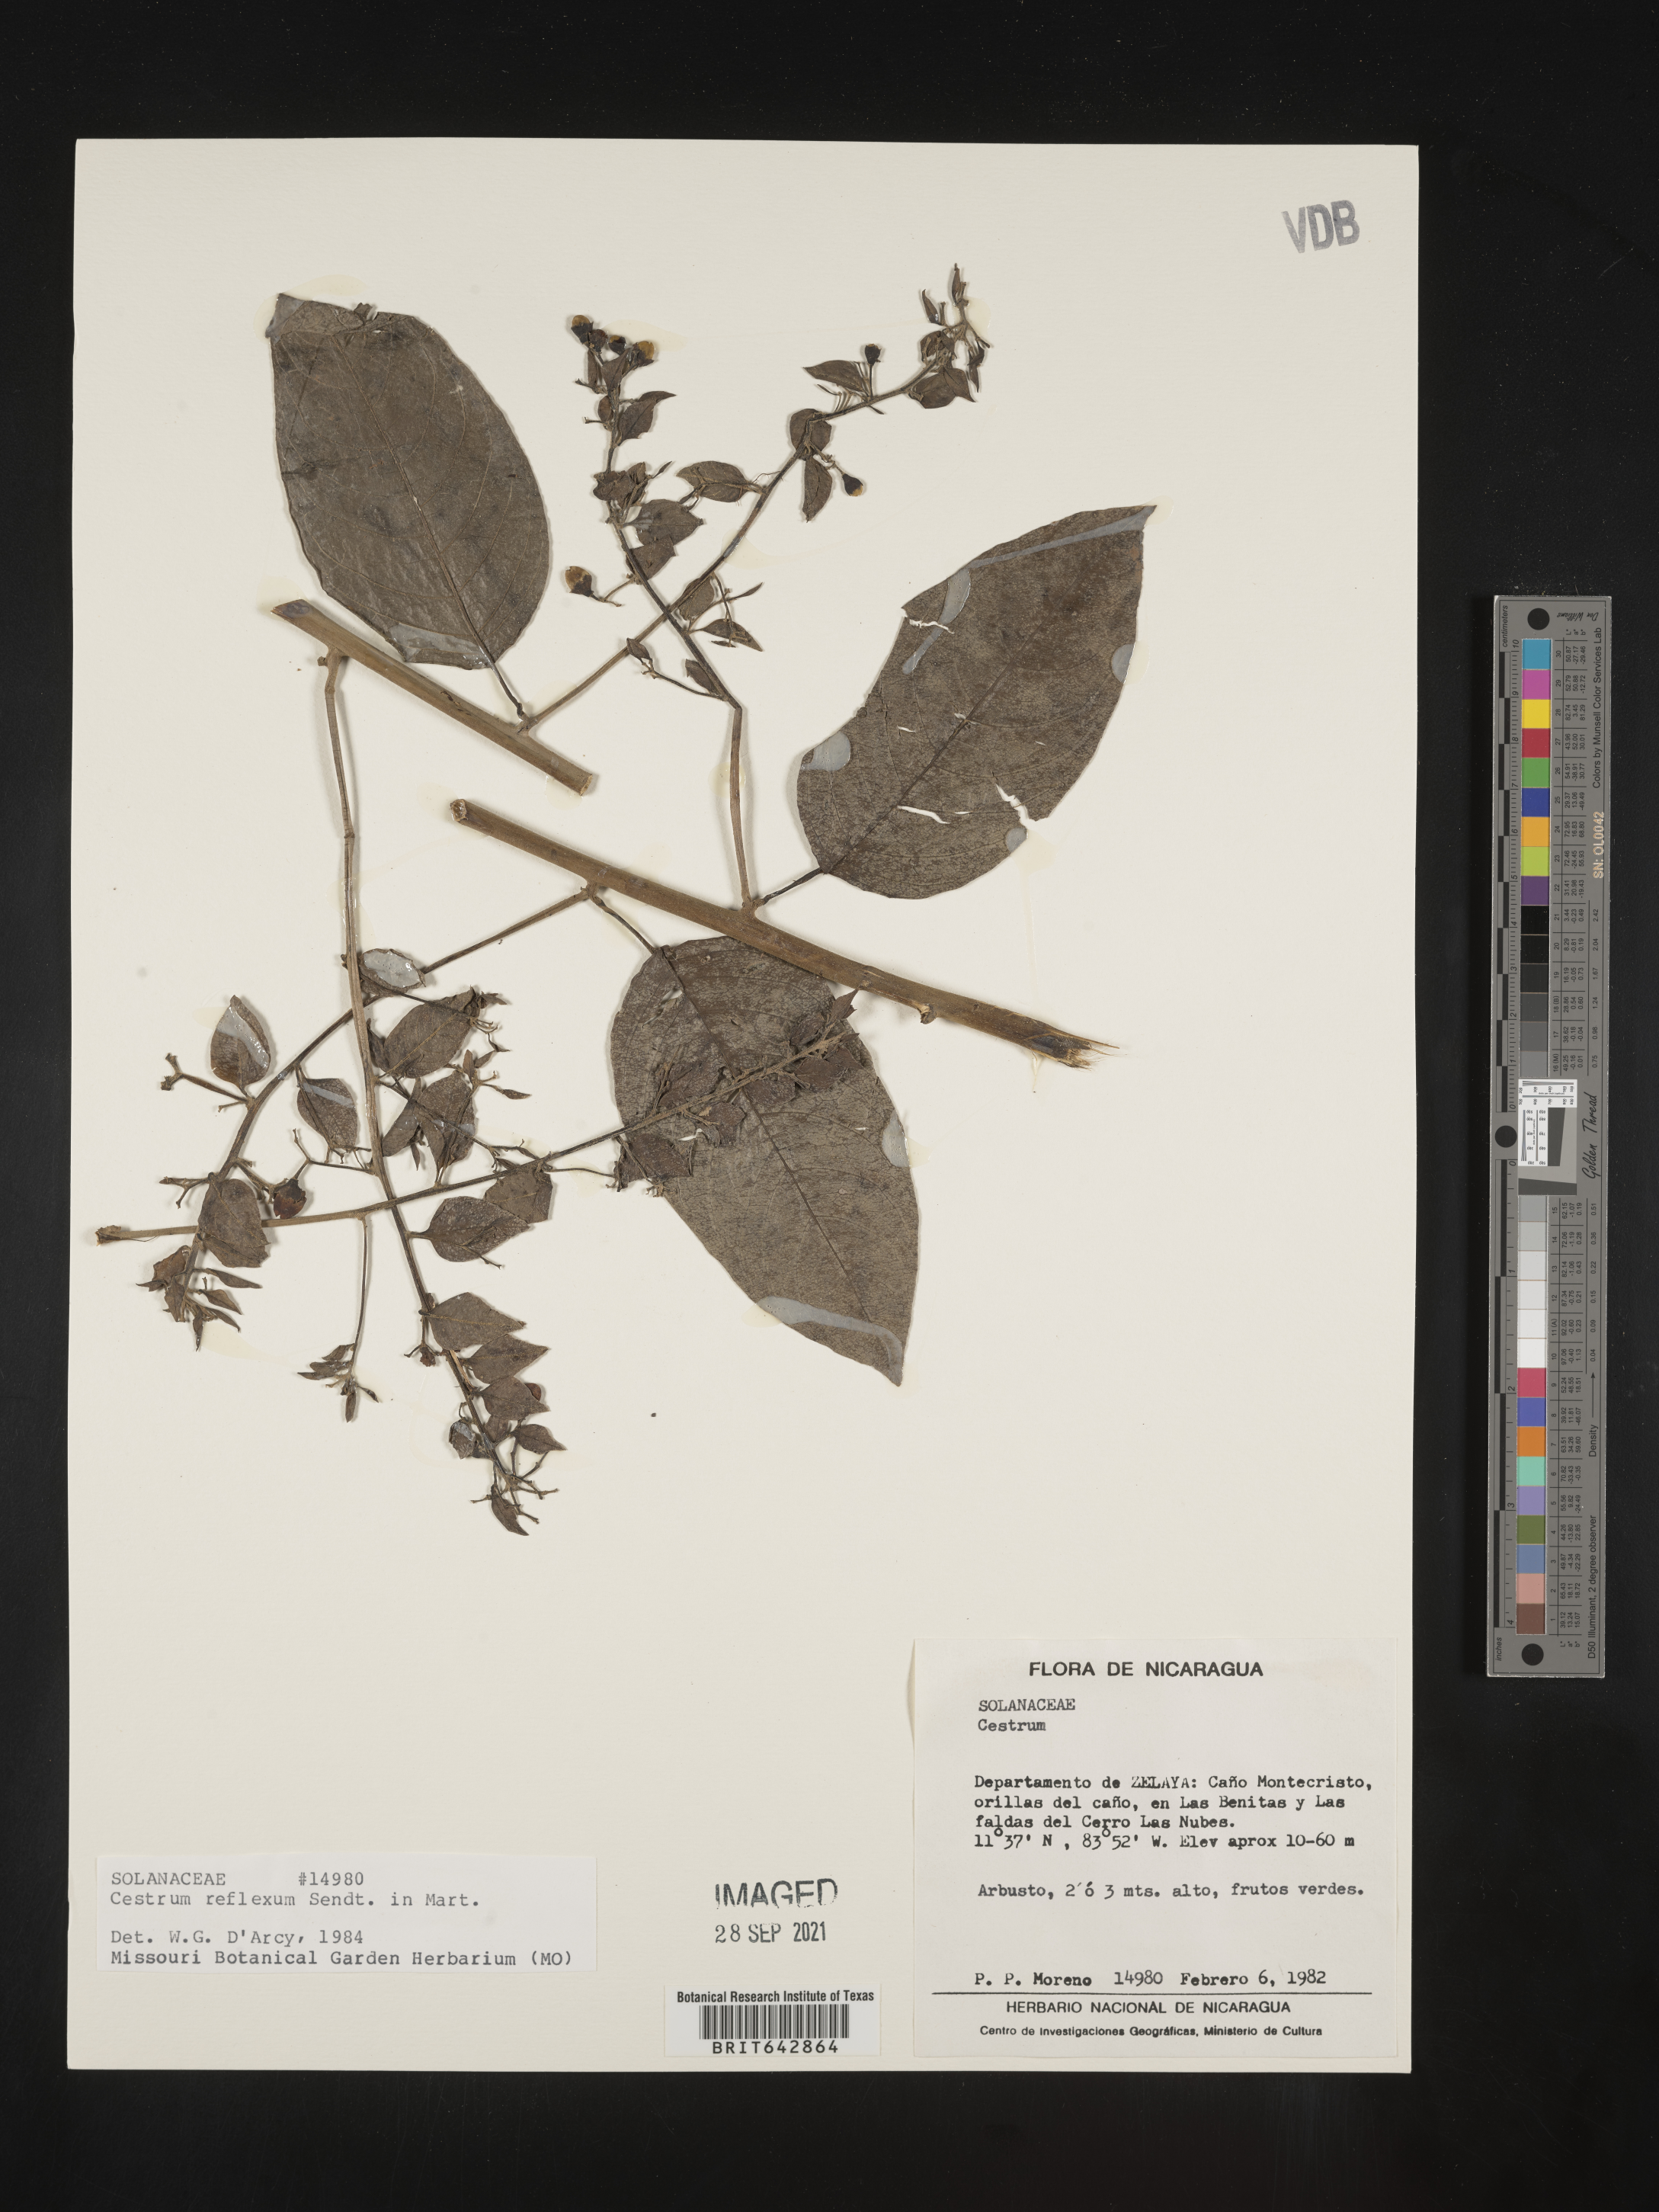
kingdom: Plantae
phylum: Tracheophyta
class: Magnoliopsida
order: Solanales
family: Solanaceae
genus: Cestrum
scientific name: Cestrum
